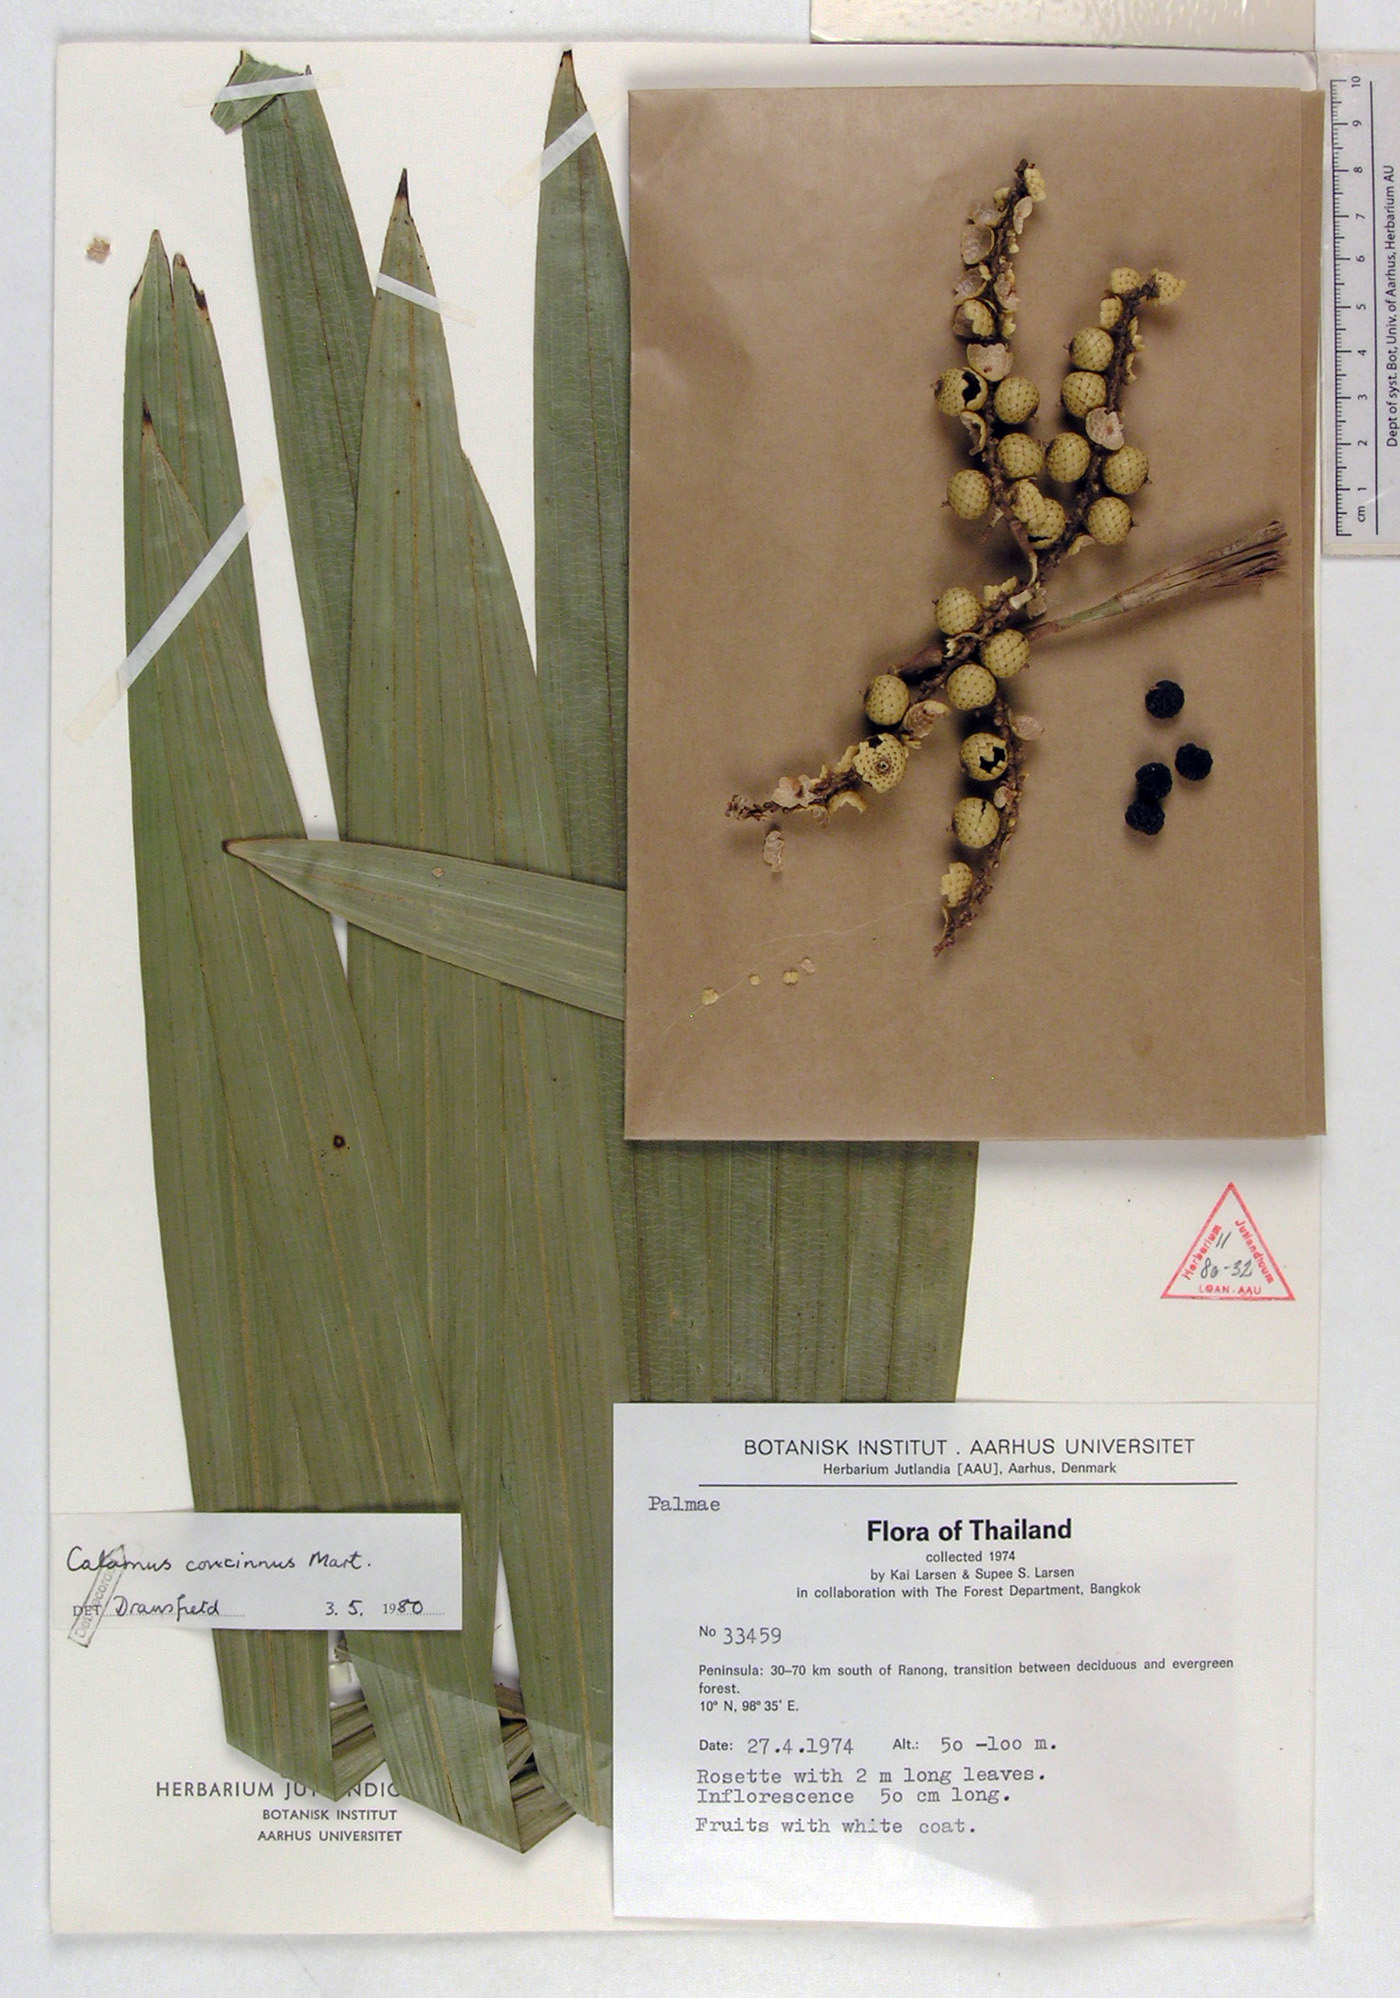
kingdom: Plantae
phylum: Tracheophyta
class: Liliopsida
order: Arecales
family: Arecaceae
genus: Calamus
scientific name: Calamus concinnus
